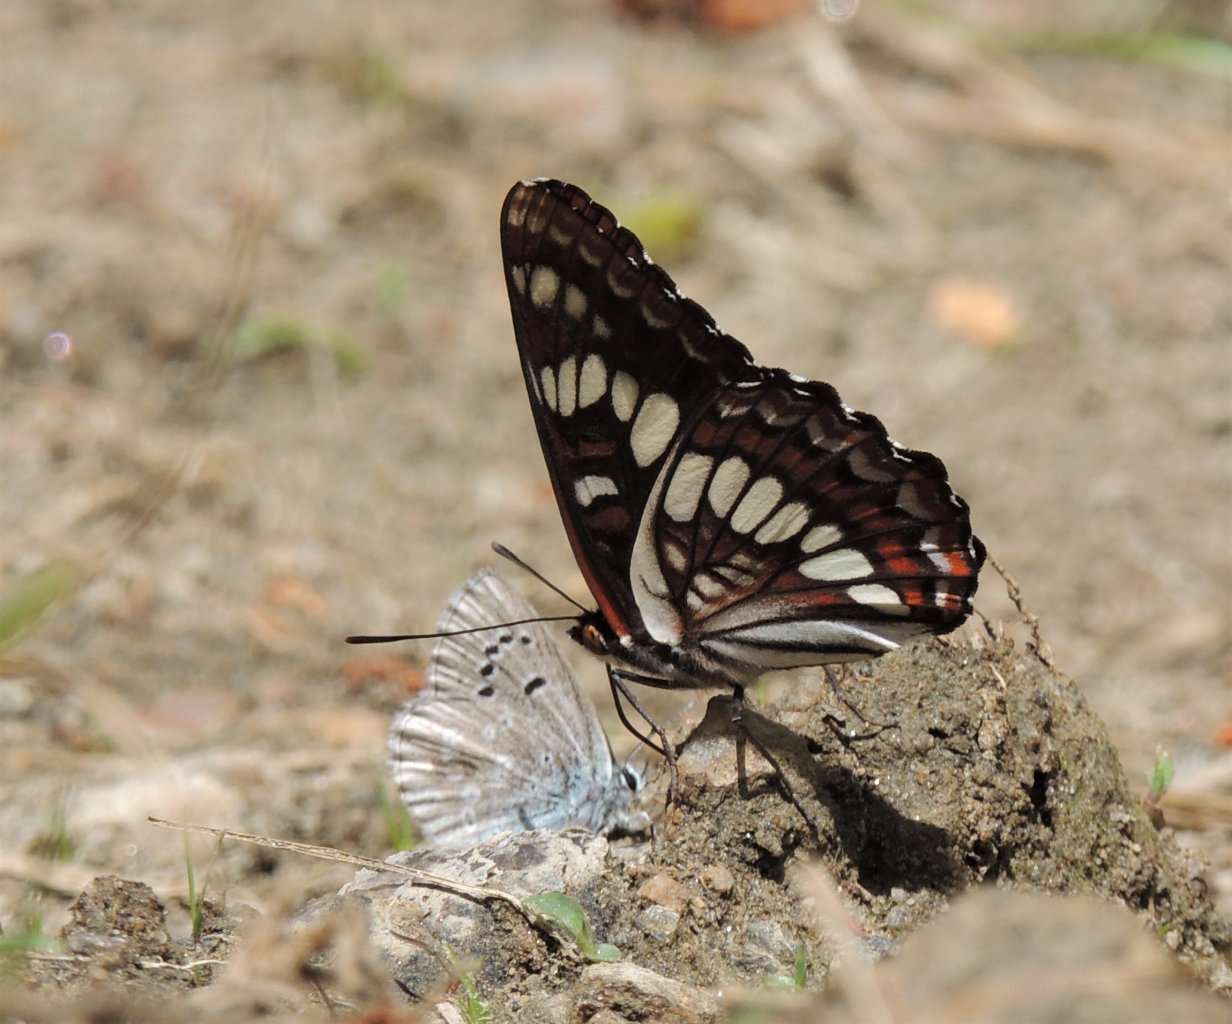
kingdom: Animalia
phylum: Arthropoda
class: Insecta
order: Lepidoptera
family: Nymphalidae
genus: Limenitis
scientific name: Limenitis lorquini
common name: Lorquin's Admiral
